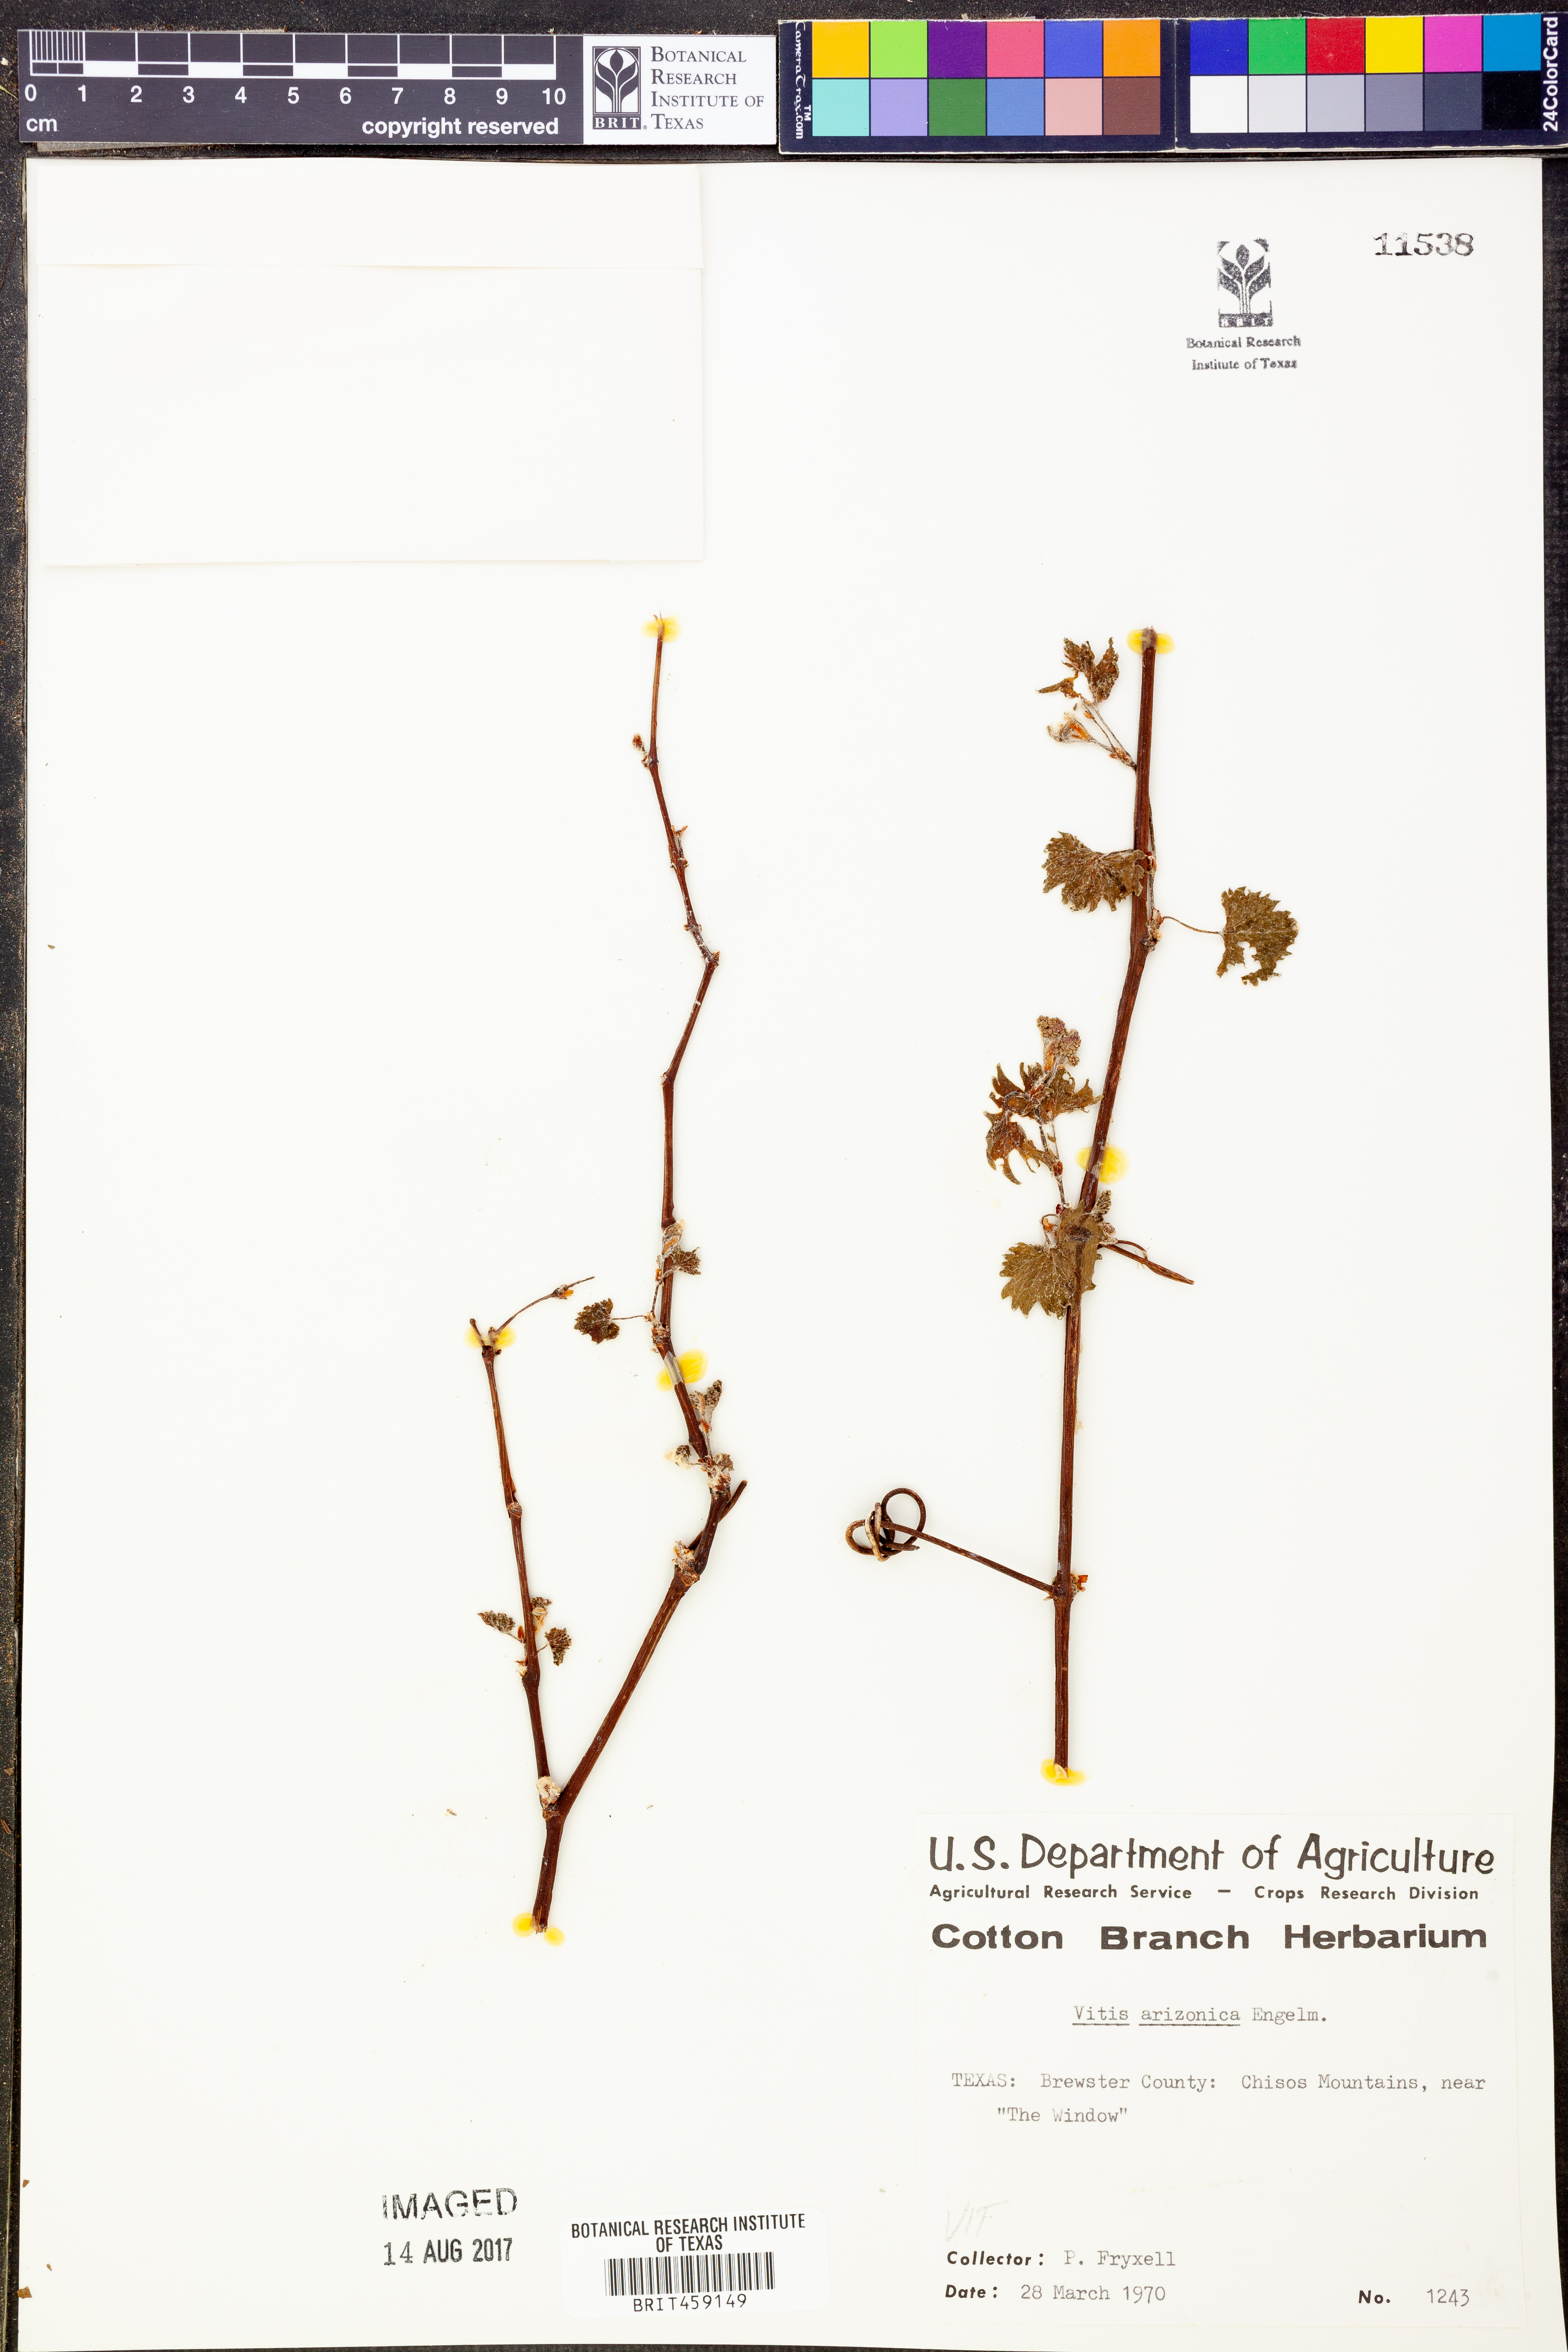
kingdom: Plantae
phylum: Tracheophyta
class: Magnoliopsida
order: Vitales
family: Vitaceae
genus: Vitis
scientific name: Vitis arizonica
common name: Canyon grape
